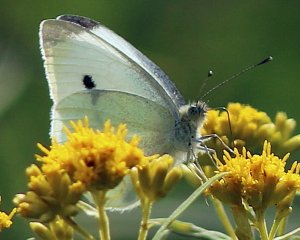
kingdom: Animalia
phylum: Arthropoda
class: Insecta
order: Lepidoptera
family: Pieridae
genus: Pieris
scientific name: Pieris rapae
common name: Cabbage White
